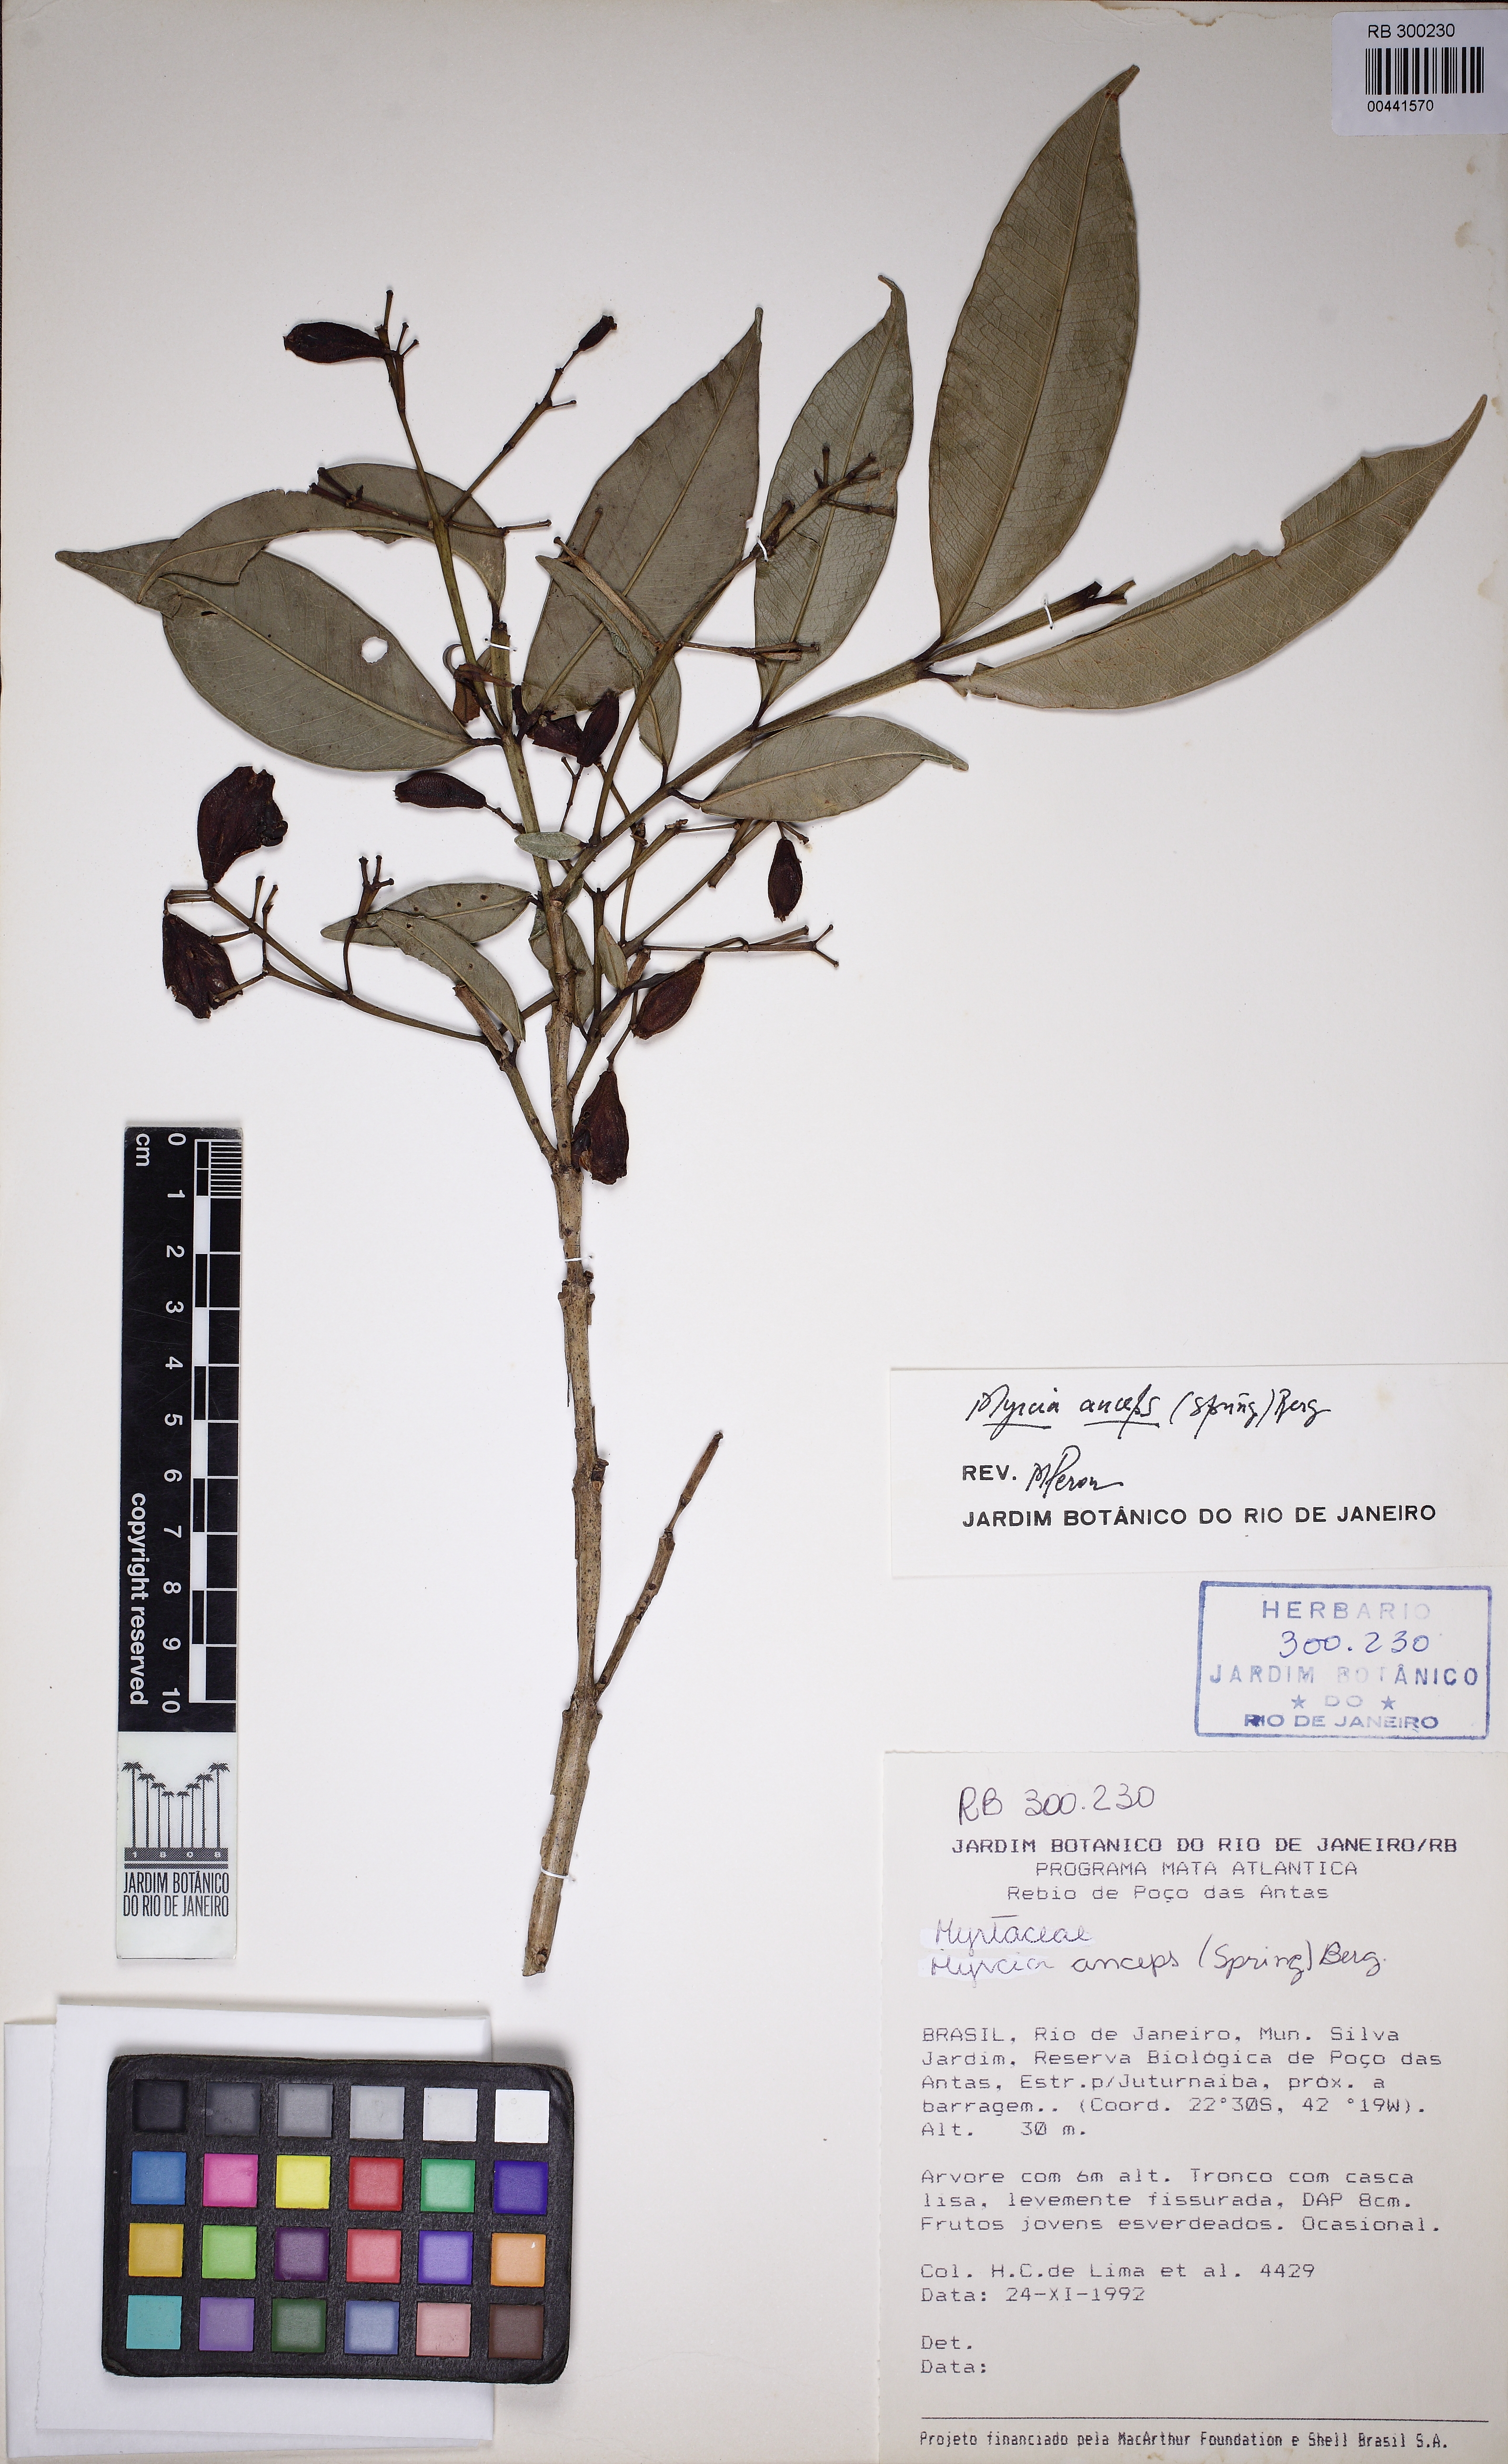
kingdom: Plantae
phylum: Tracheophyta
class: Magnoliopsida
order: Myrtales
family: Myrtaceae
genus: Myrcia
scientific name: Myrcia anceps
